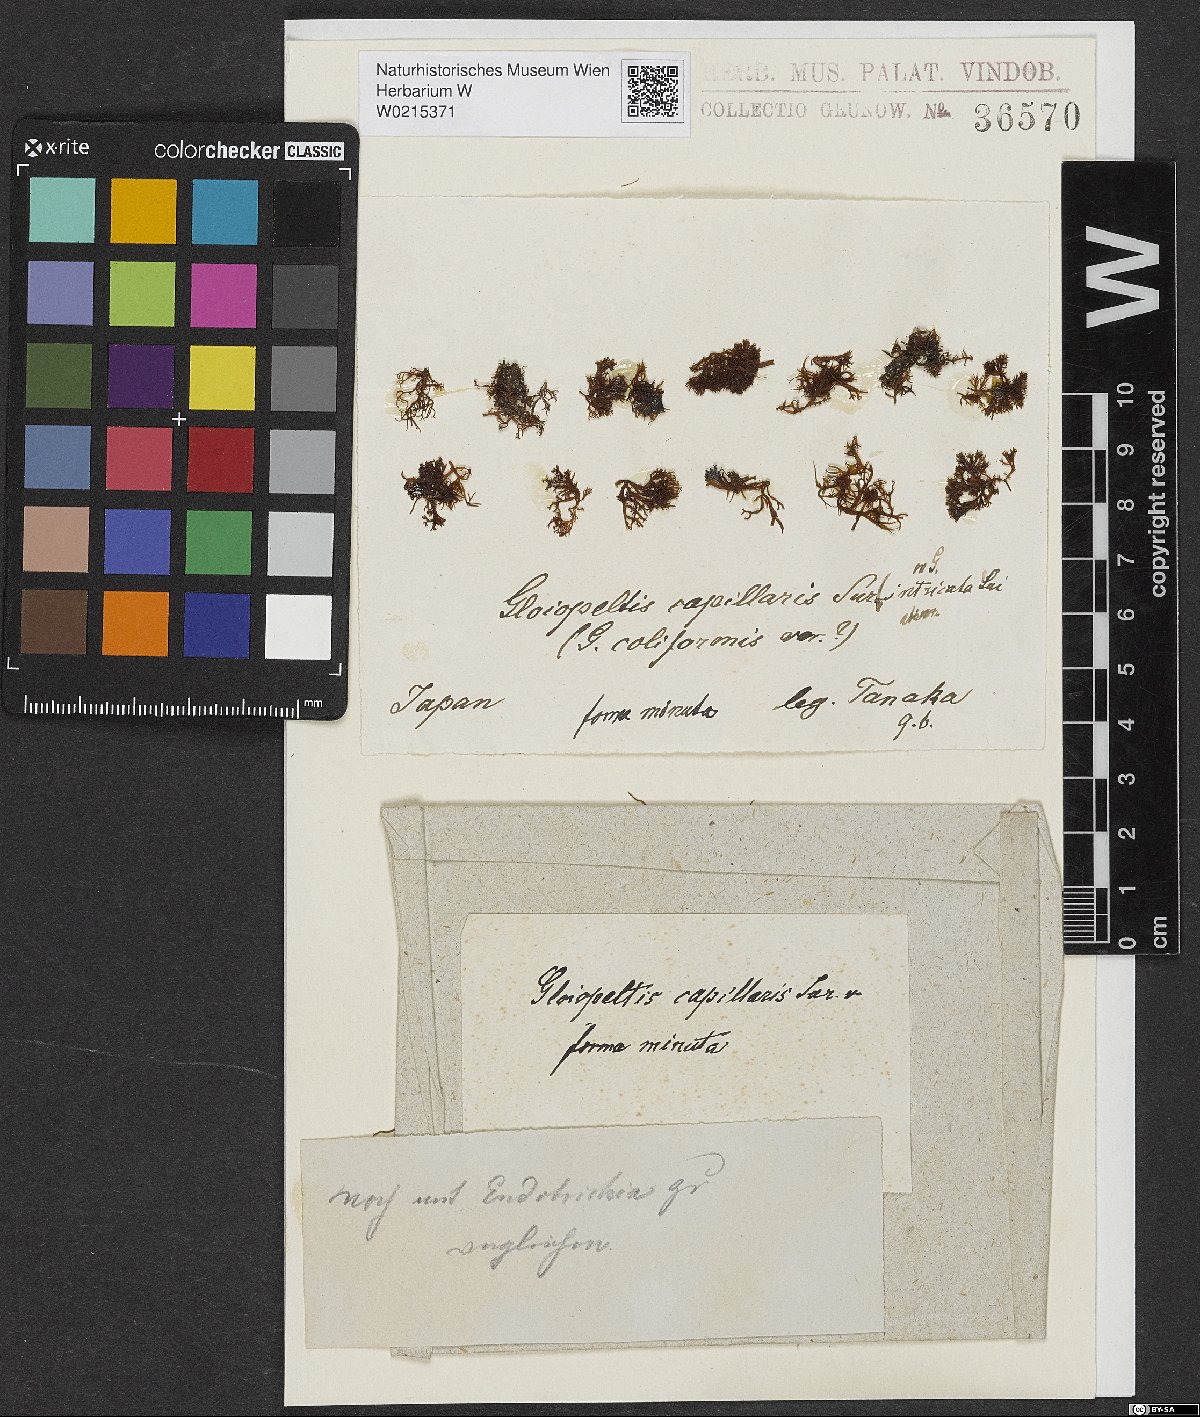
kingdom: Plantae
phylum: Rhodophyta
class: Florideophyceae
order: Gigartinales
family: Endocladiaceae
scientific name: Endocladiaceae
